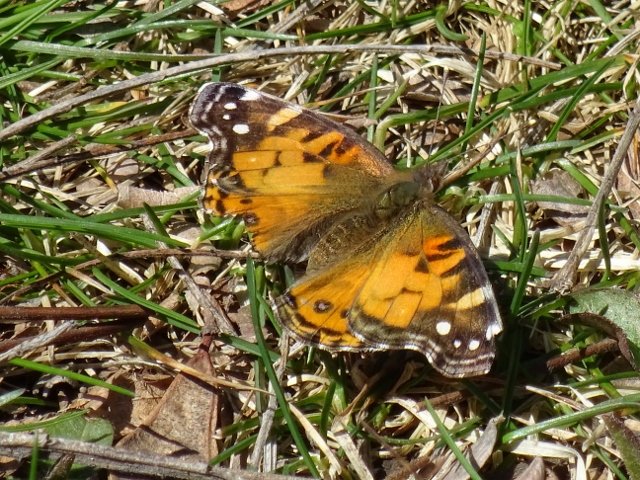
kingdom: Animalia
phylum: Arthropoda
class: Insecta
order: Lepidoptera
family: Nymphalidae
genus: Vanessa
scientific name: Vanessa virginiensis
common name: American Lady
